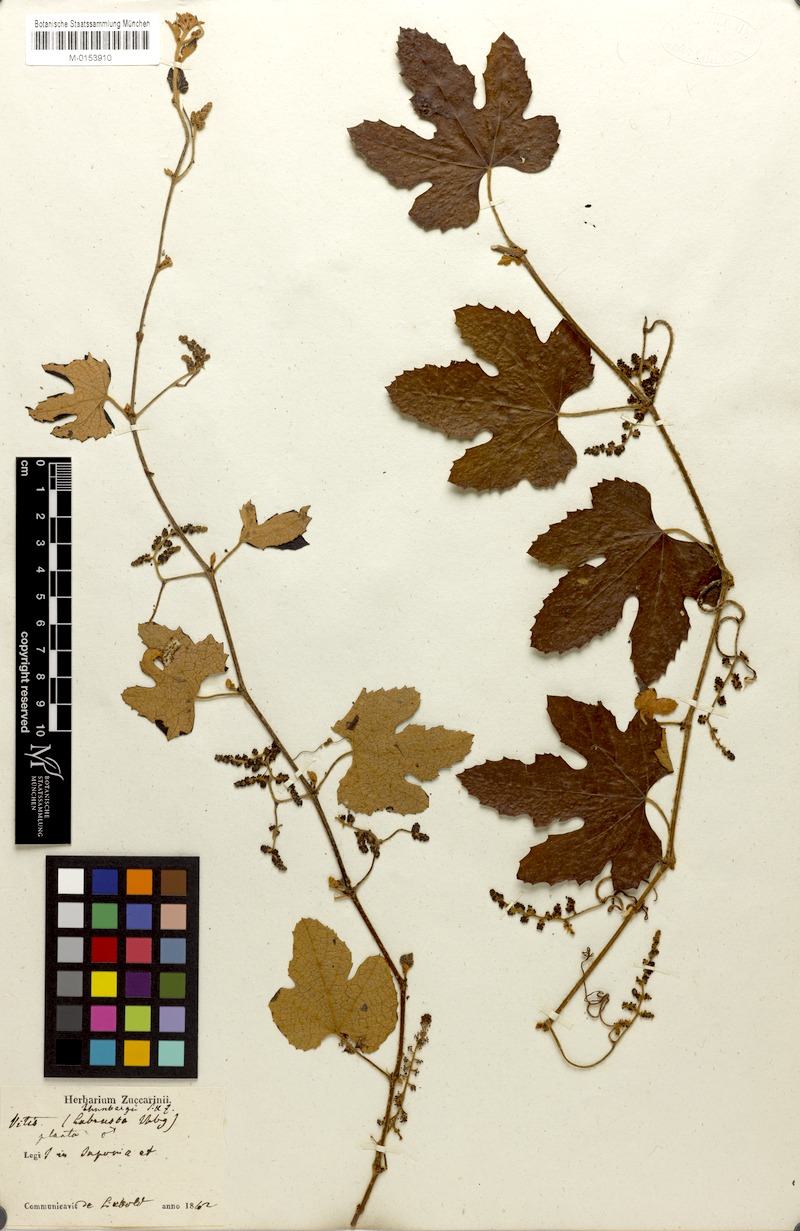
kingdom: Plantae
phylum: Tracheophyta
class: Magnoliopsida
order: Vitales
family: Vitaceae
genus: Vitis
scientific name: Vitis ficifolia
